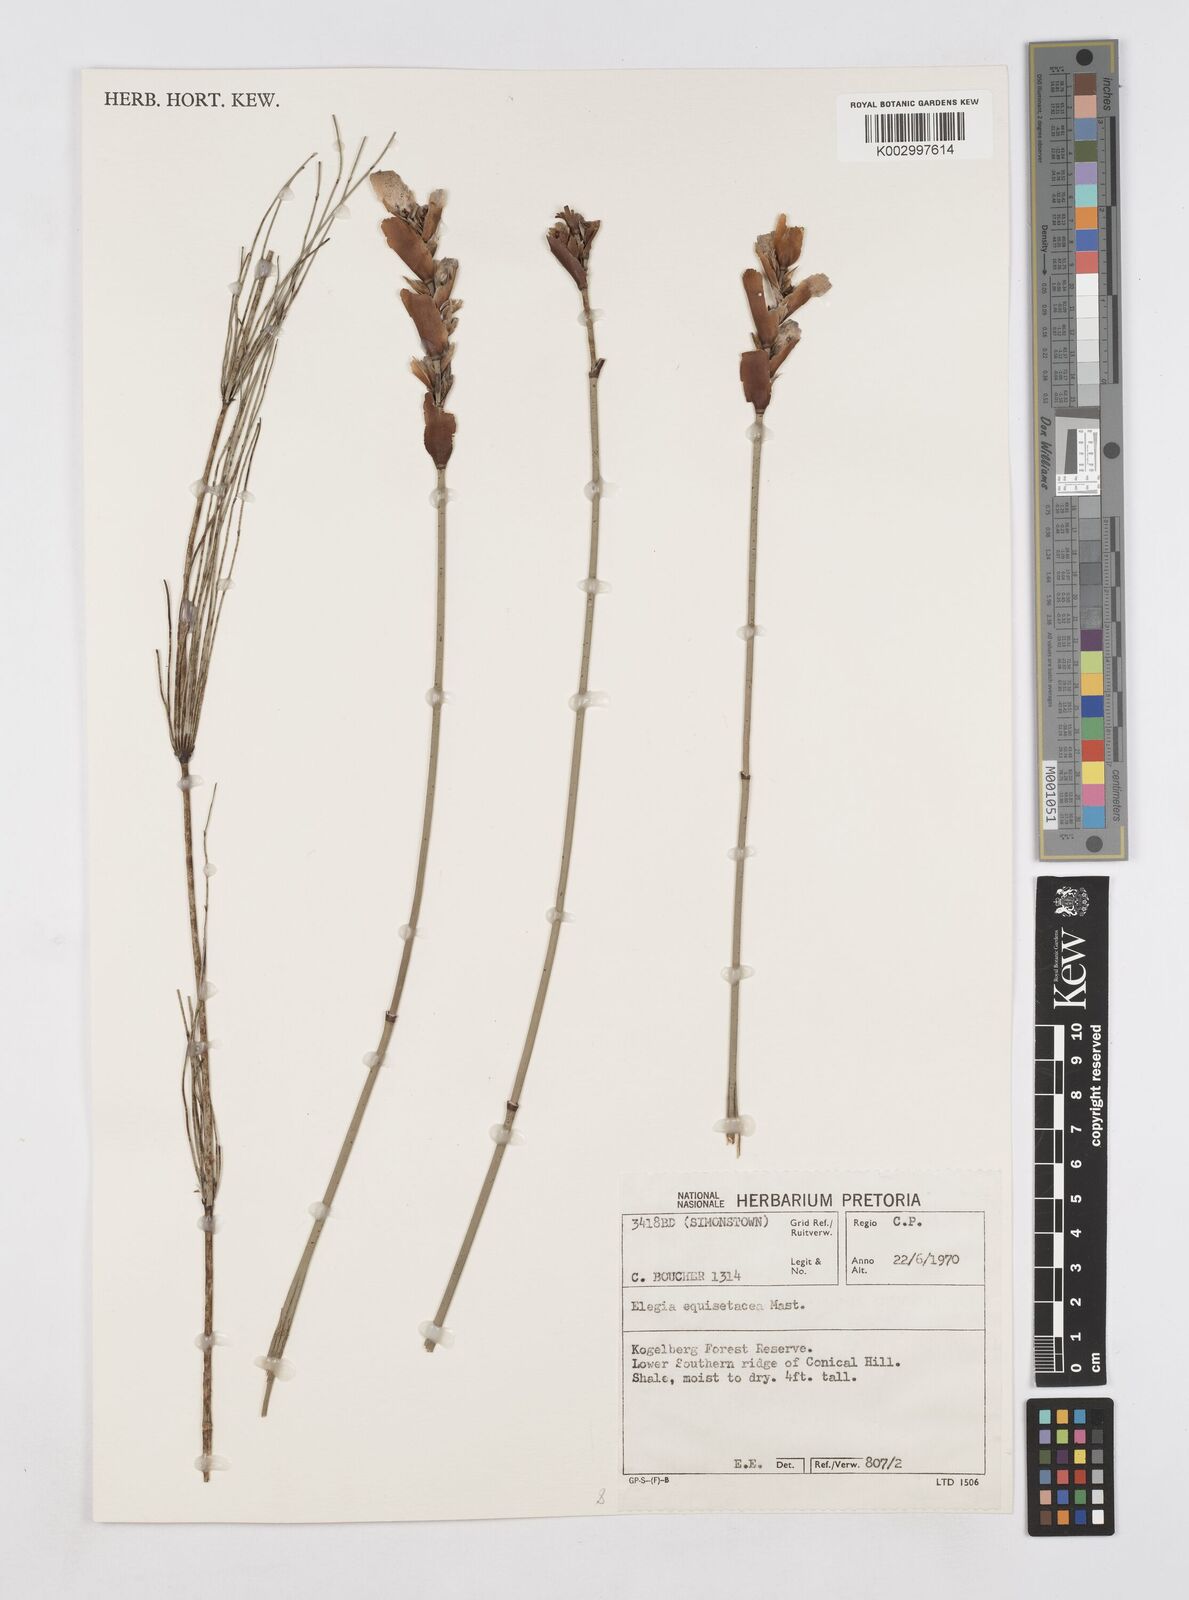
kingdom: Plantae
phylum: Tracheophyta
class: Liliopsida
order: Poales
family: Restionaceae
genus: Elegia
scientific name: Elegia equisetacea
